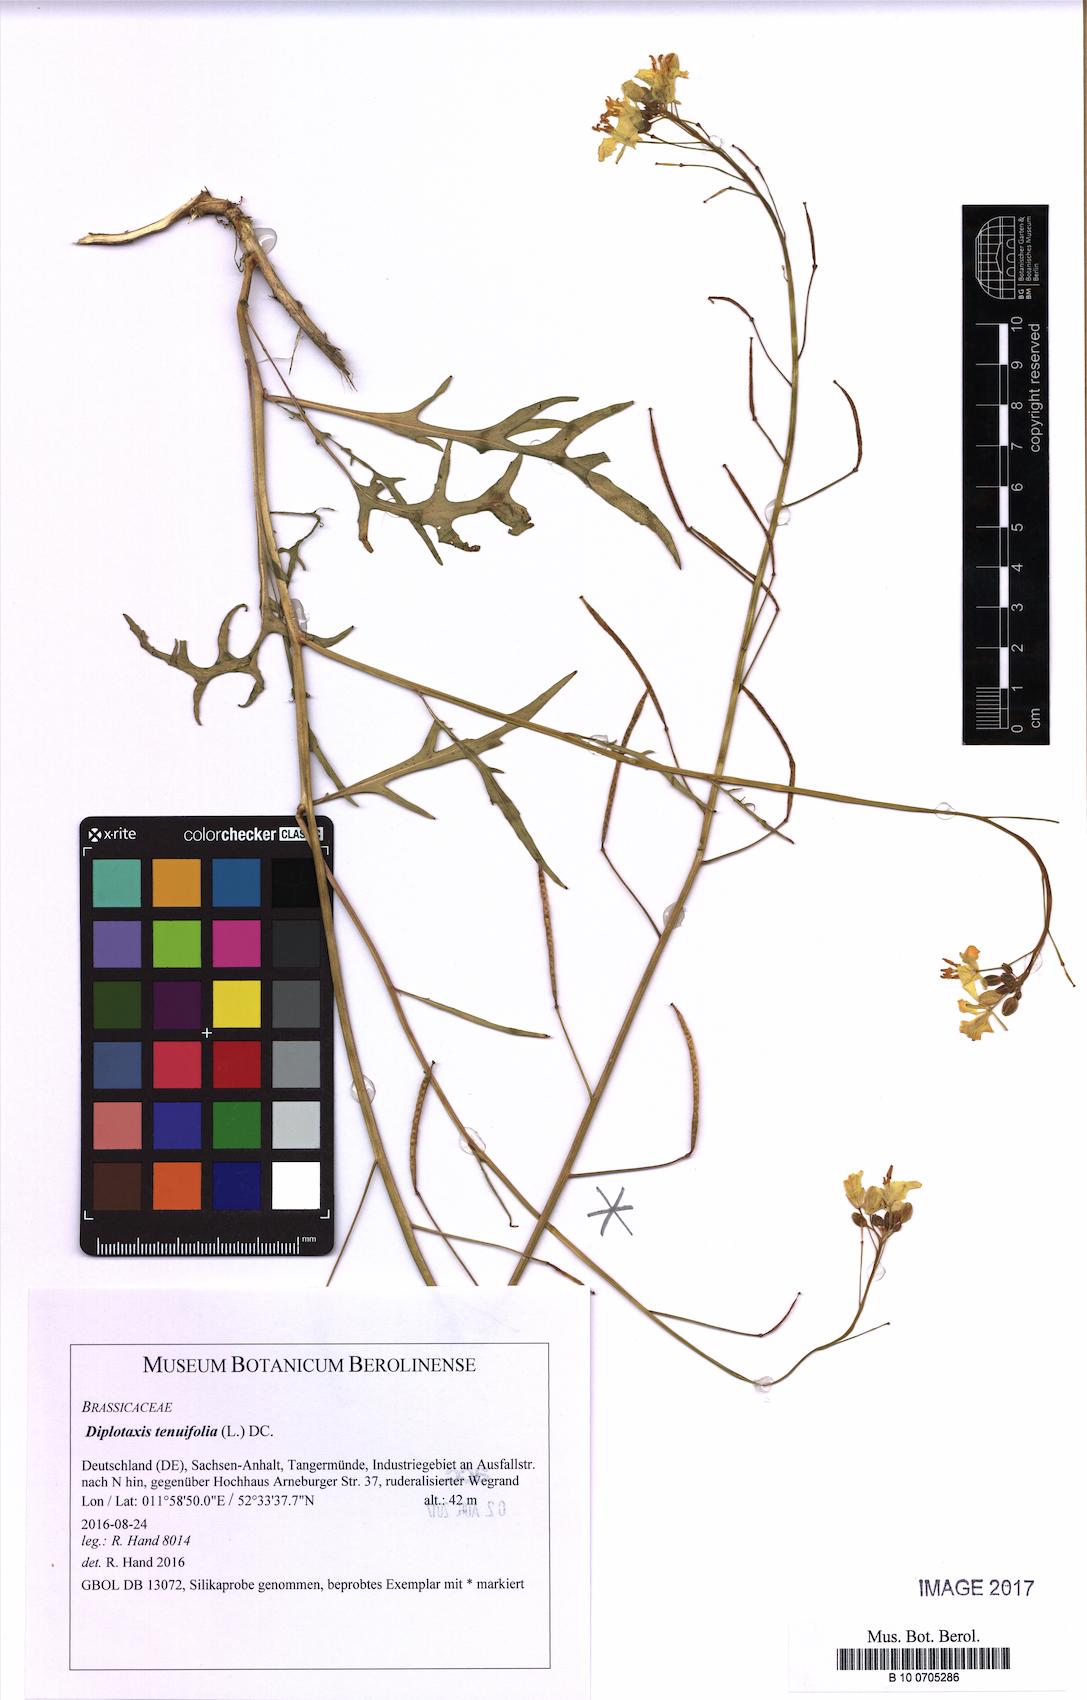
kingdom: Plantae
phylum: Tracheophyta
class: Magnoliopsida
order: Brassicales
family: Brassicaceae
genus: Diplotaxis
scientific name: Diplotaxis tenuifolia
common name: Perennial wall-rocket
